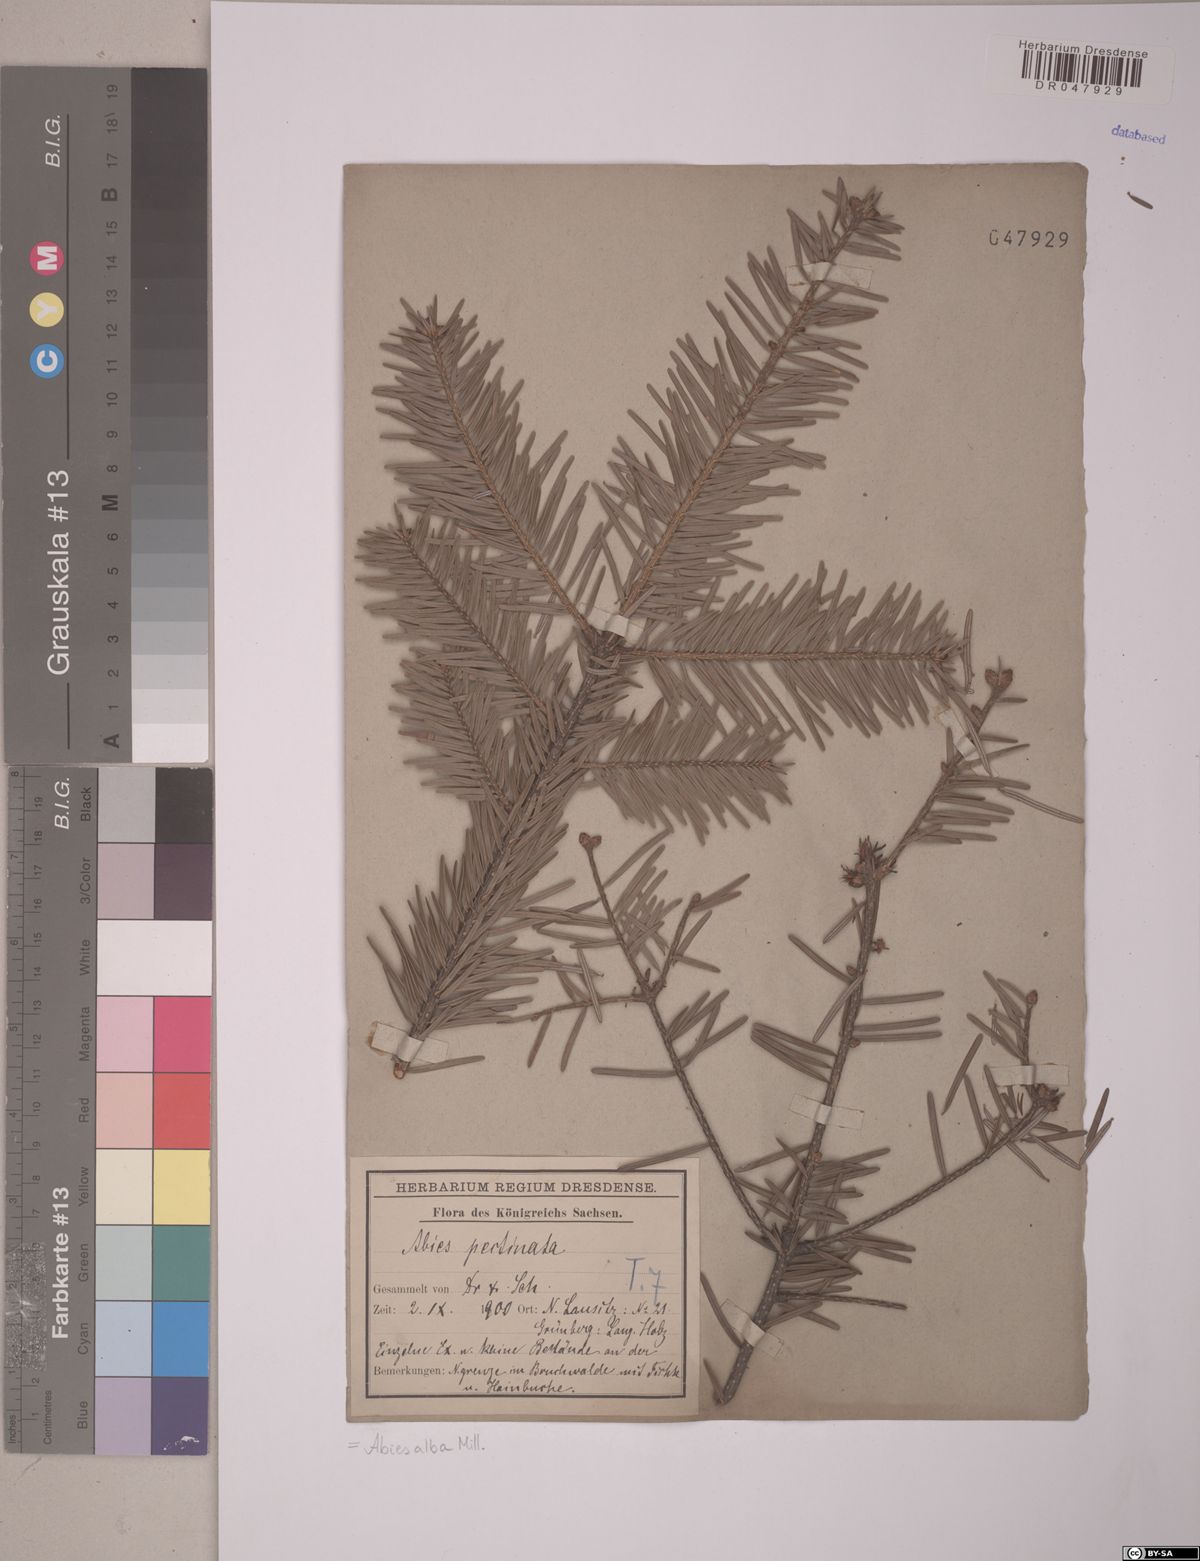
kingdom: Plantae
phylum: Tracheophyta
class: Pinopsida
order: Pinales
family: Pinaceae
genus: Abies
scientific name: Abies alba
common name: Silver fir
